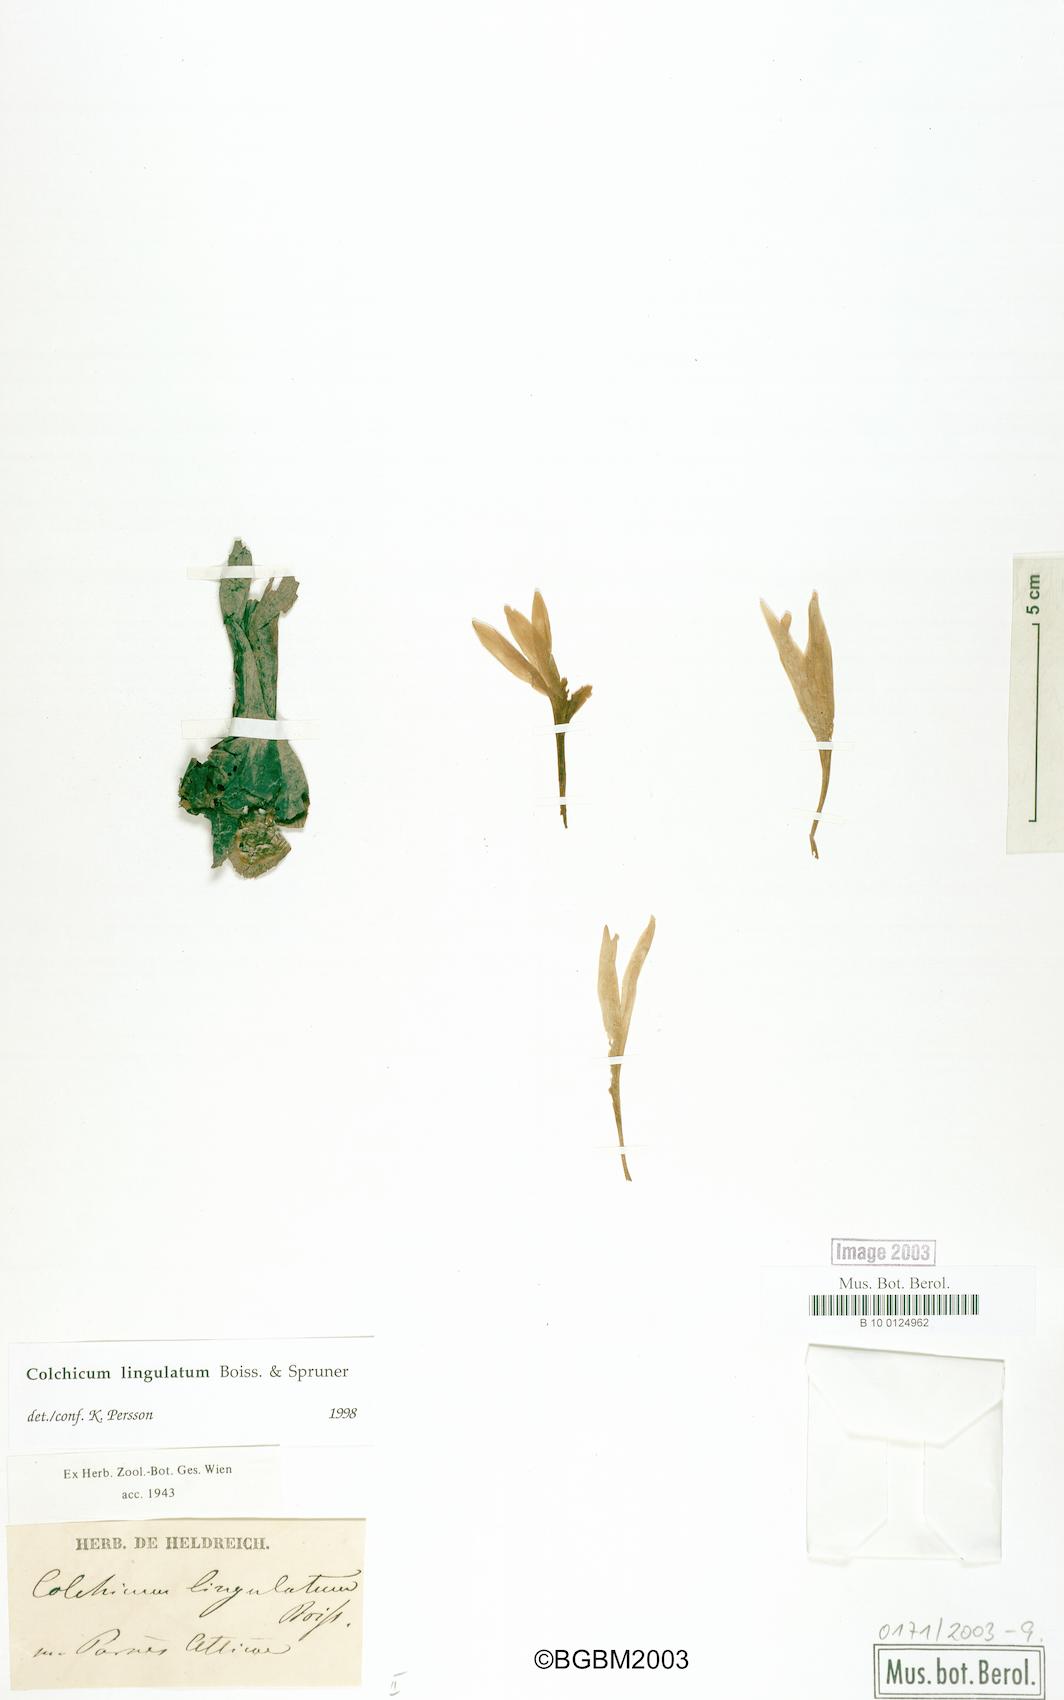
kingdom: Plantae
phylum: Tracheophyta
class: Liliopsida
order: Liliales
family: Colchicaceae
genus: Colchicum
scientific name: Colchicum lingulatum
